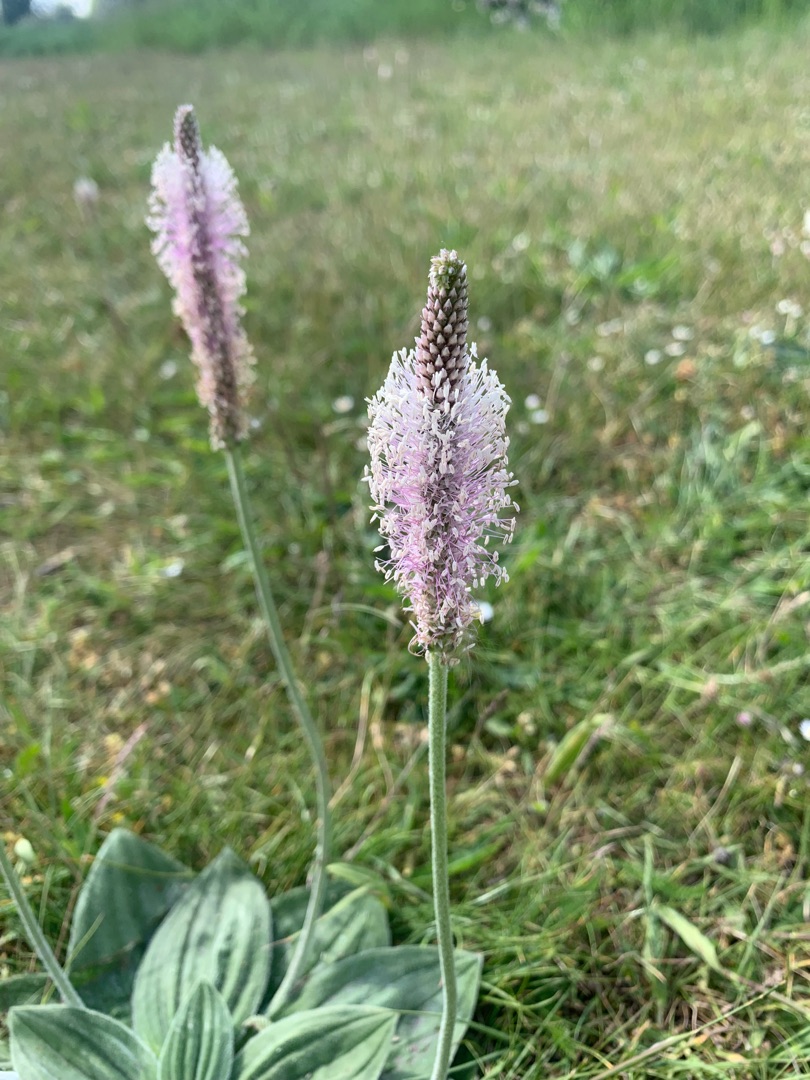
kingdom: Plantae
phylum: Tracheophyta
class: Magnoliopsida
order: Lamiales
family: Plantaginaceae
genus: Plantago
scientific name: Plantago media
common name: Dunet vejbred
